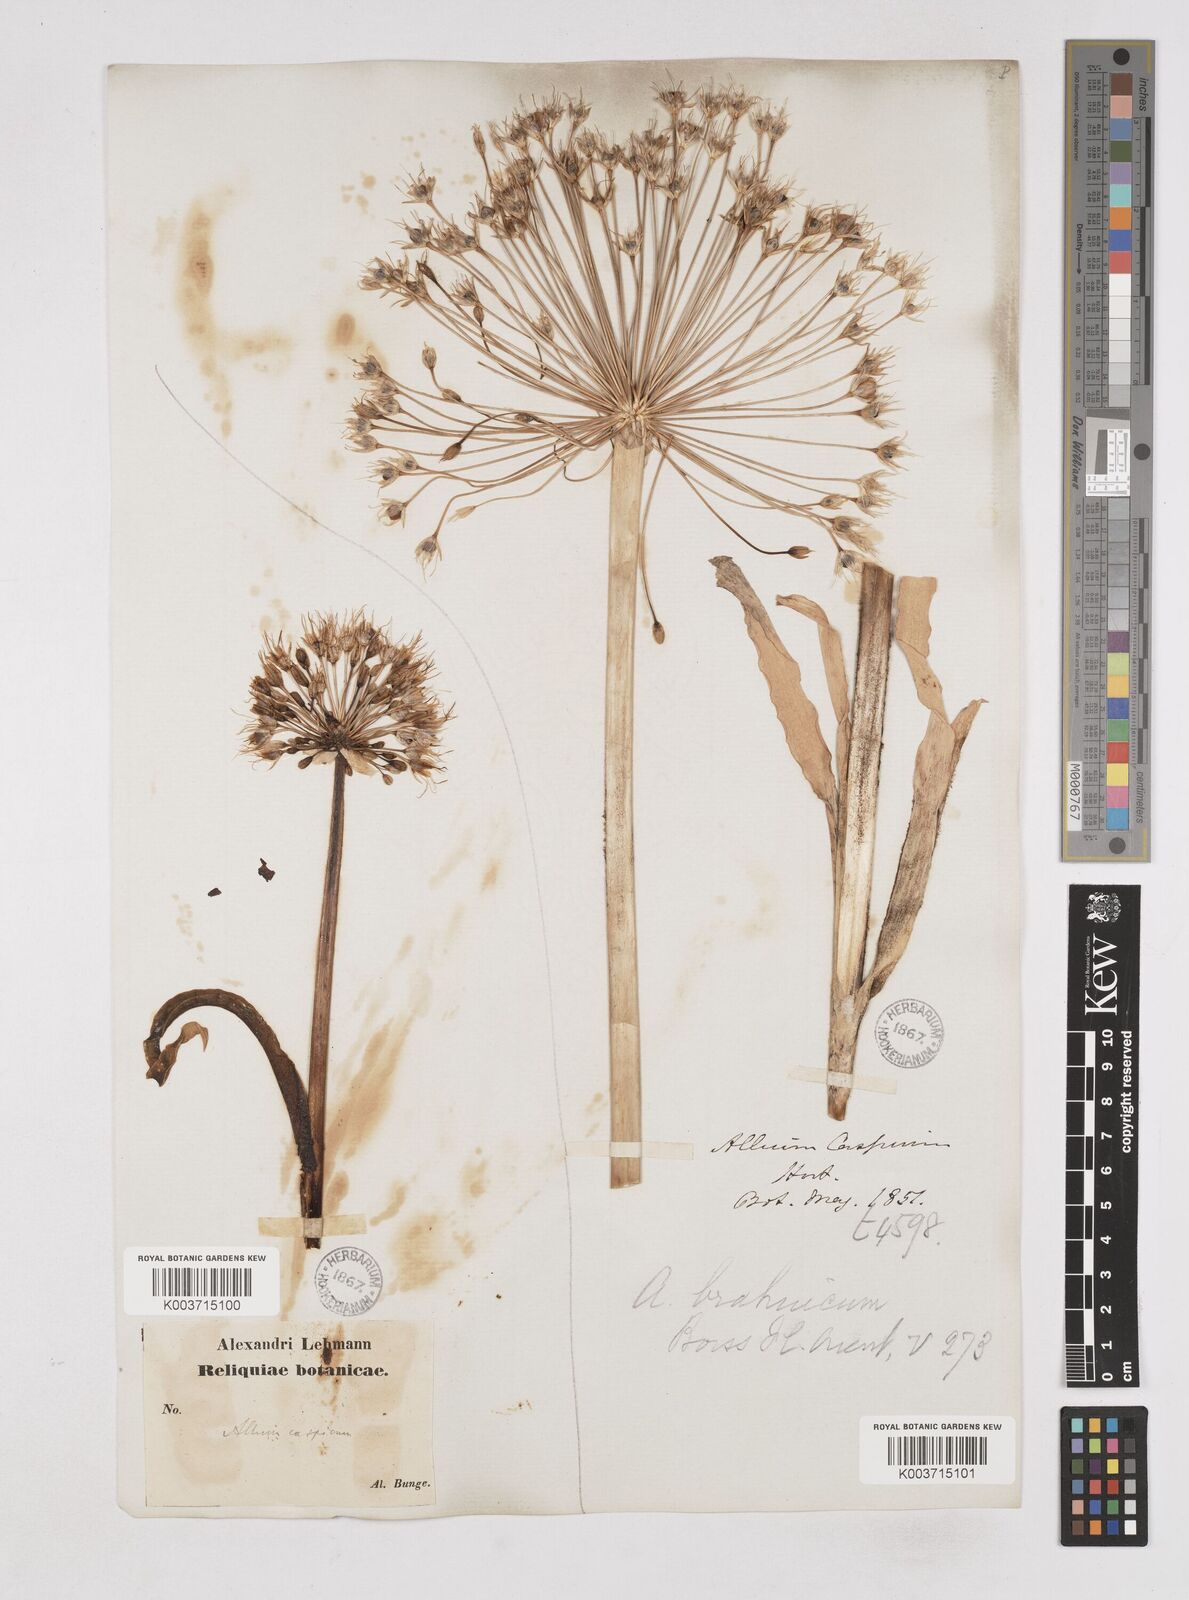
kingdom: Plantae
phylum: Tracheophyta
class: Liliopsida
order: Asparagales
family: Amaryllidaceae
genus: Allium
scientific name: Allium caspium
